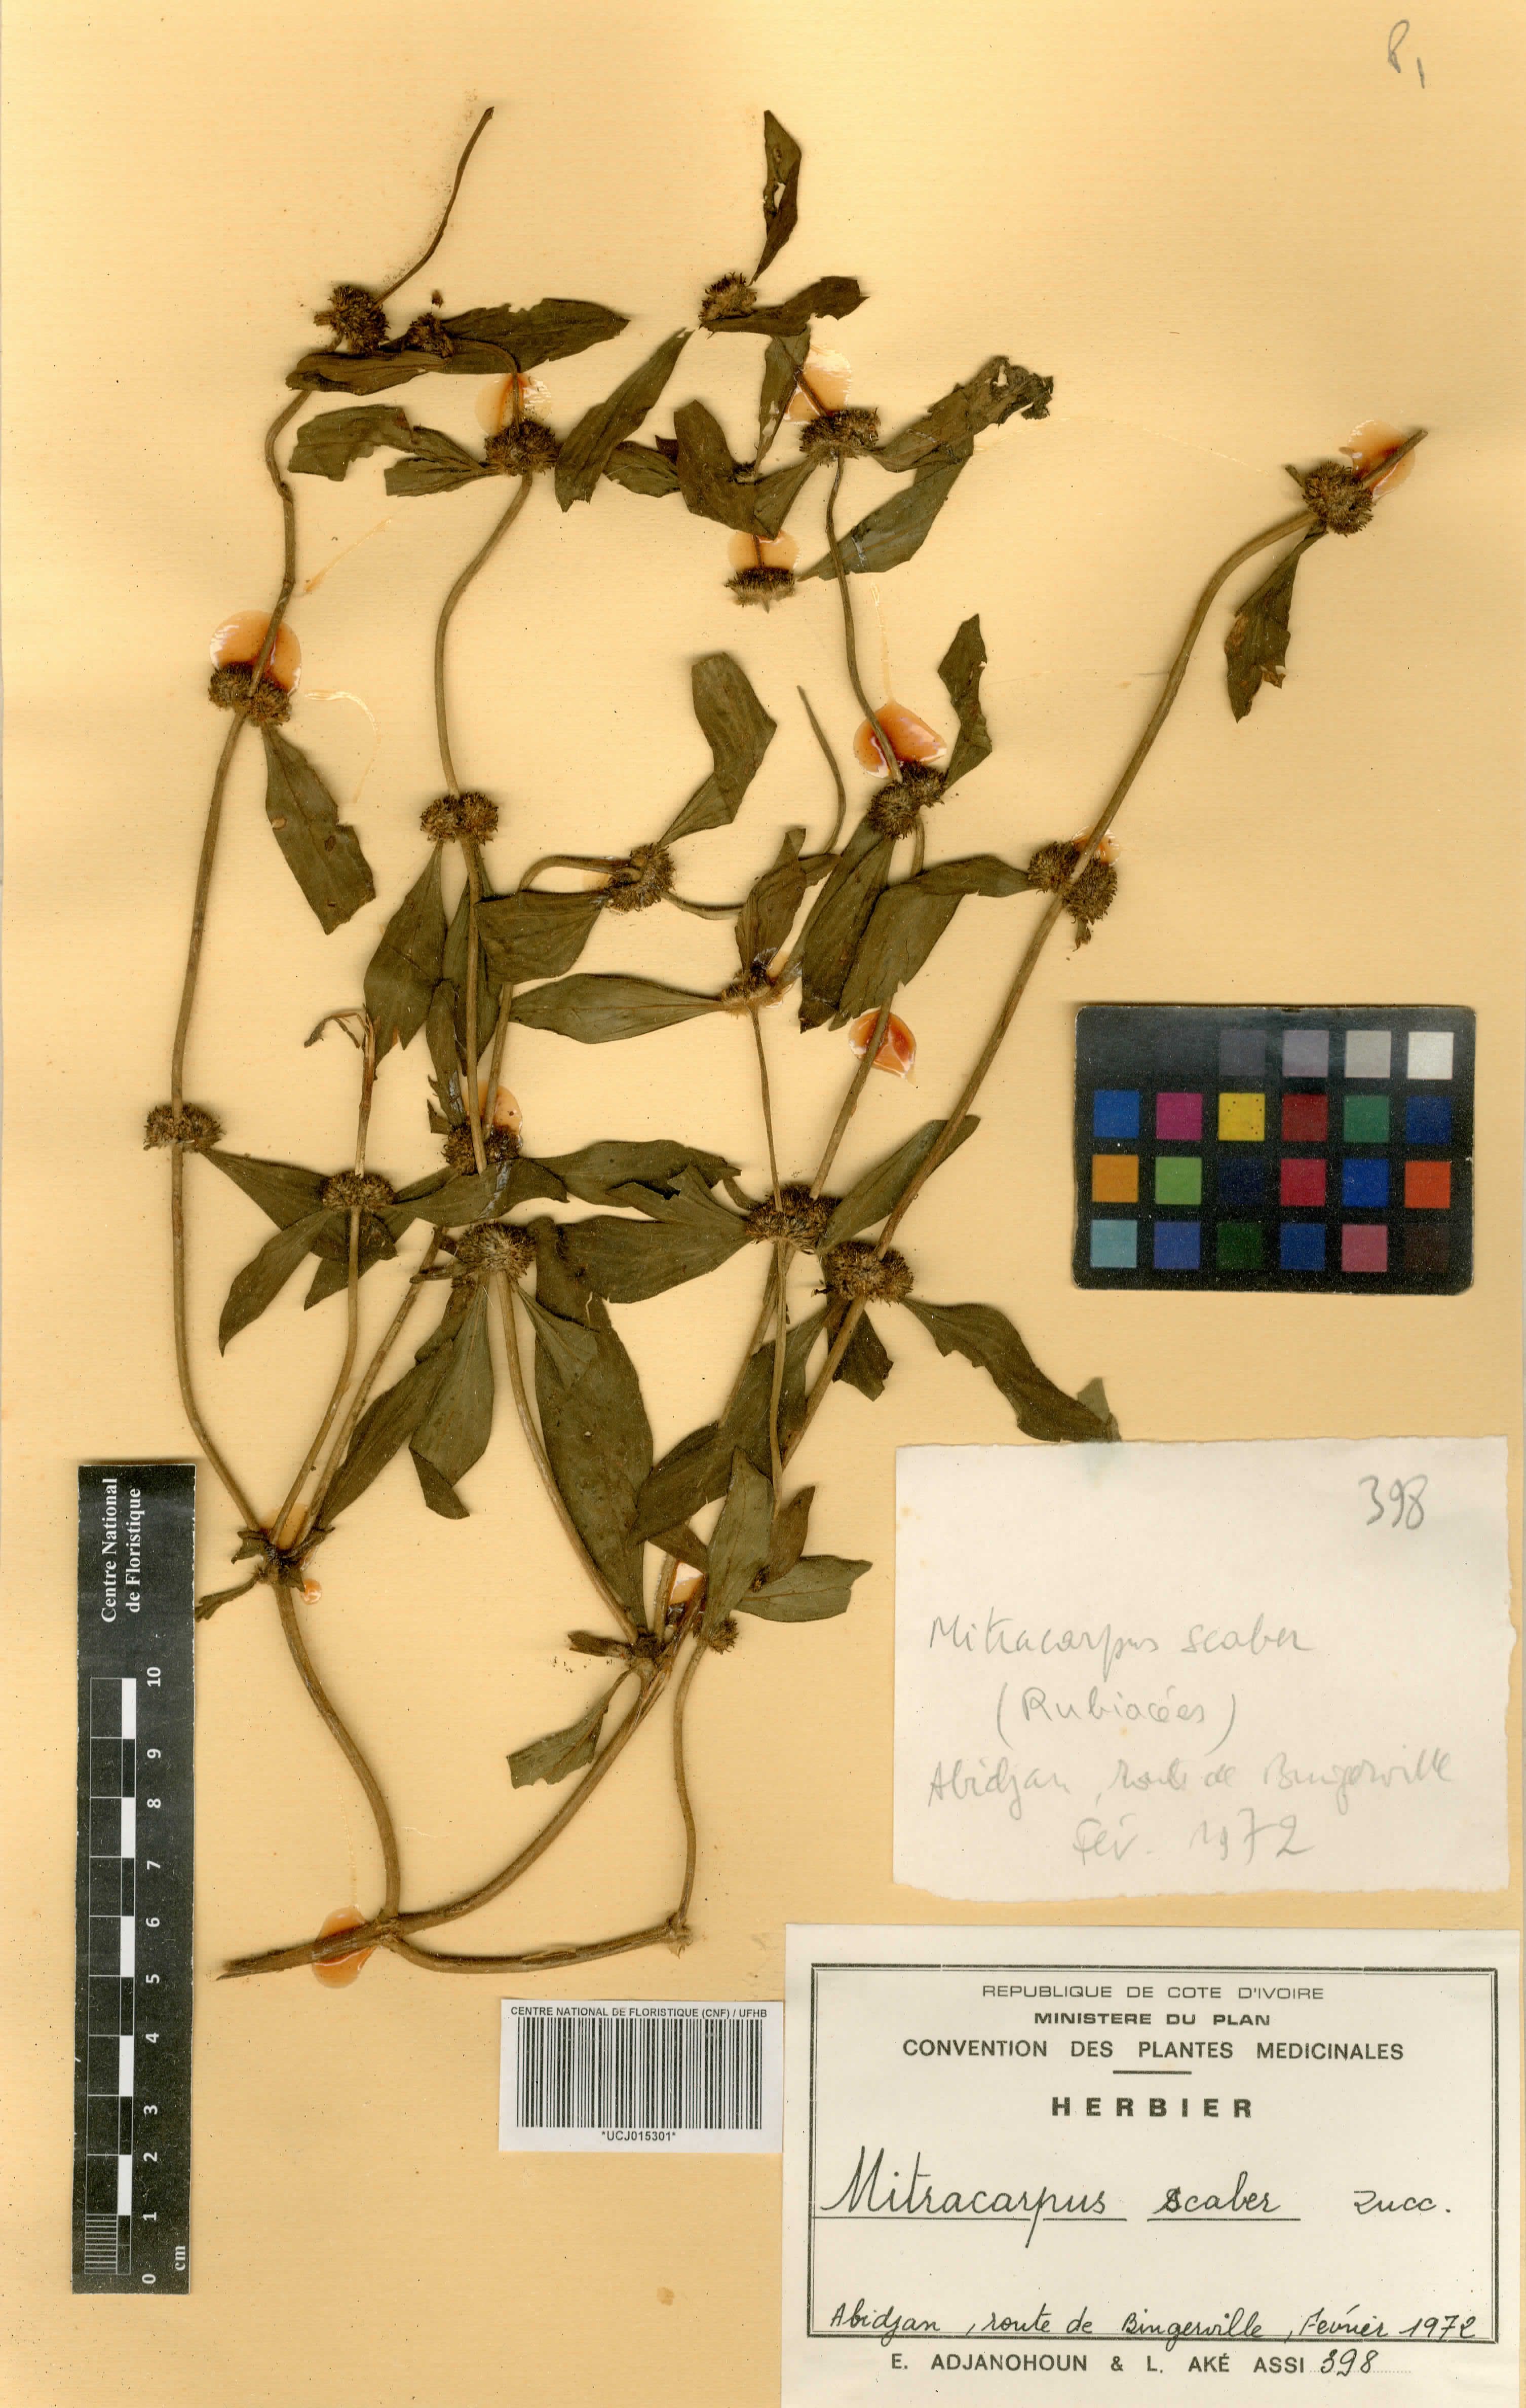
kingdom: Plantae
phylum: Tracheophyta
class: Magnoliopsida
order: Gentianales
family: Rubiaceae
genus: Mitracarpus
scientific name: Mitracarpus hirtus
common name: Tropical girdlepod
